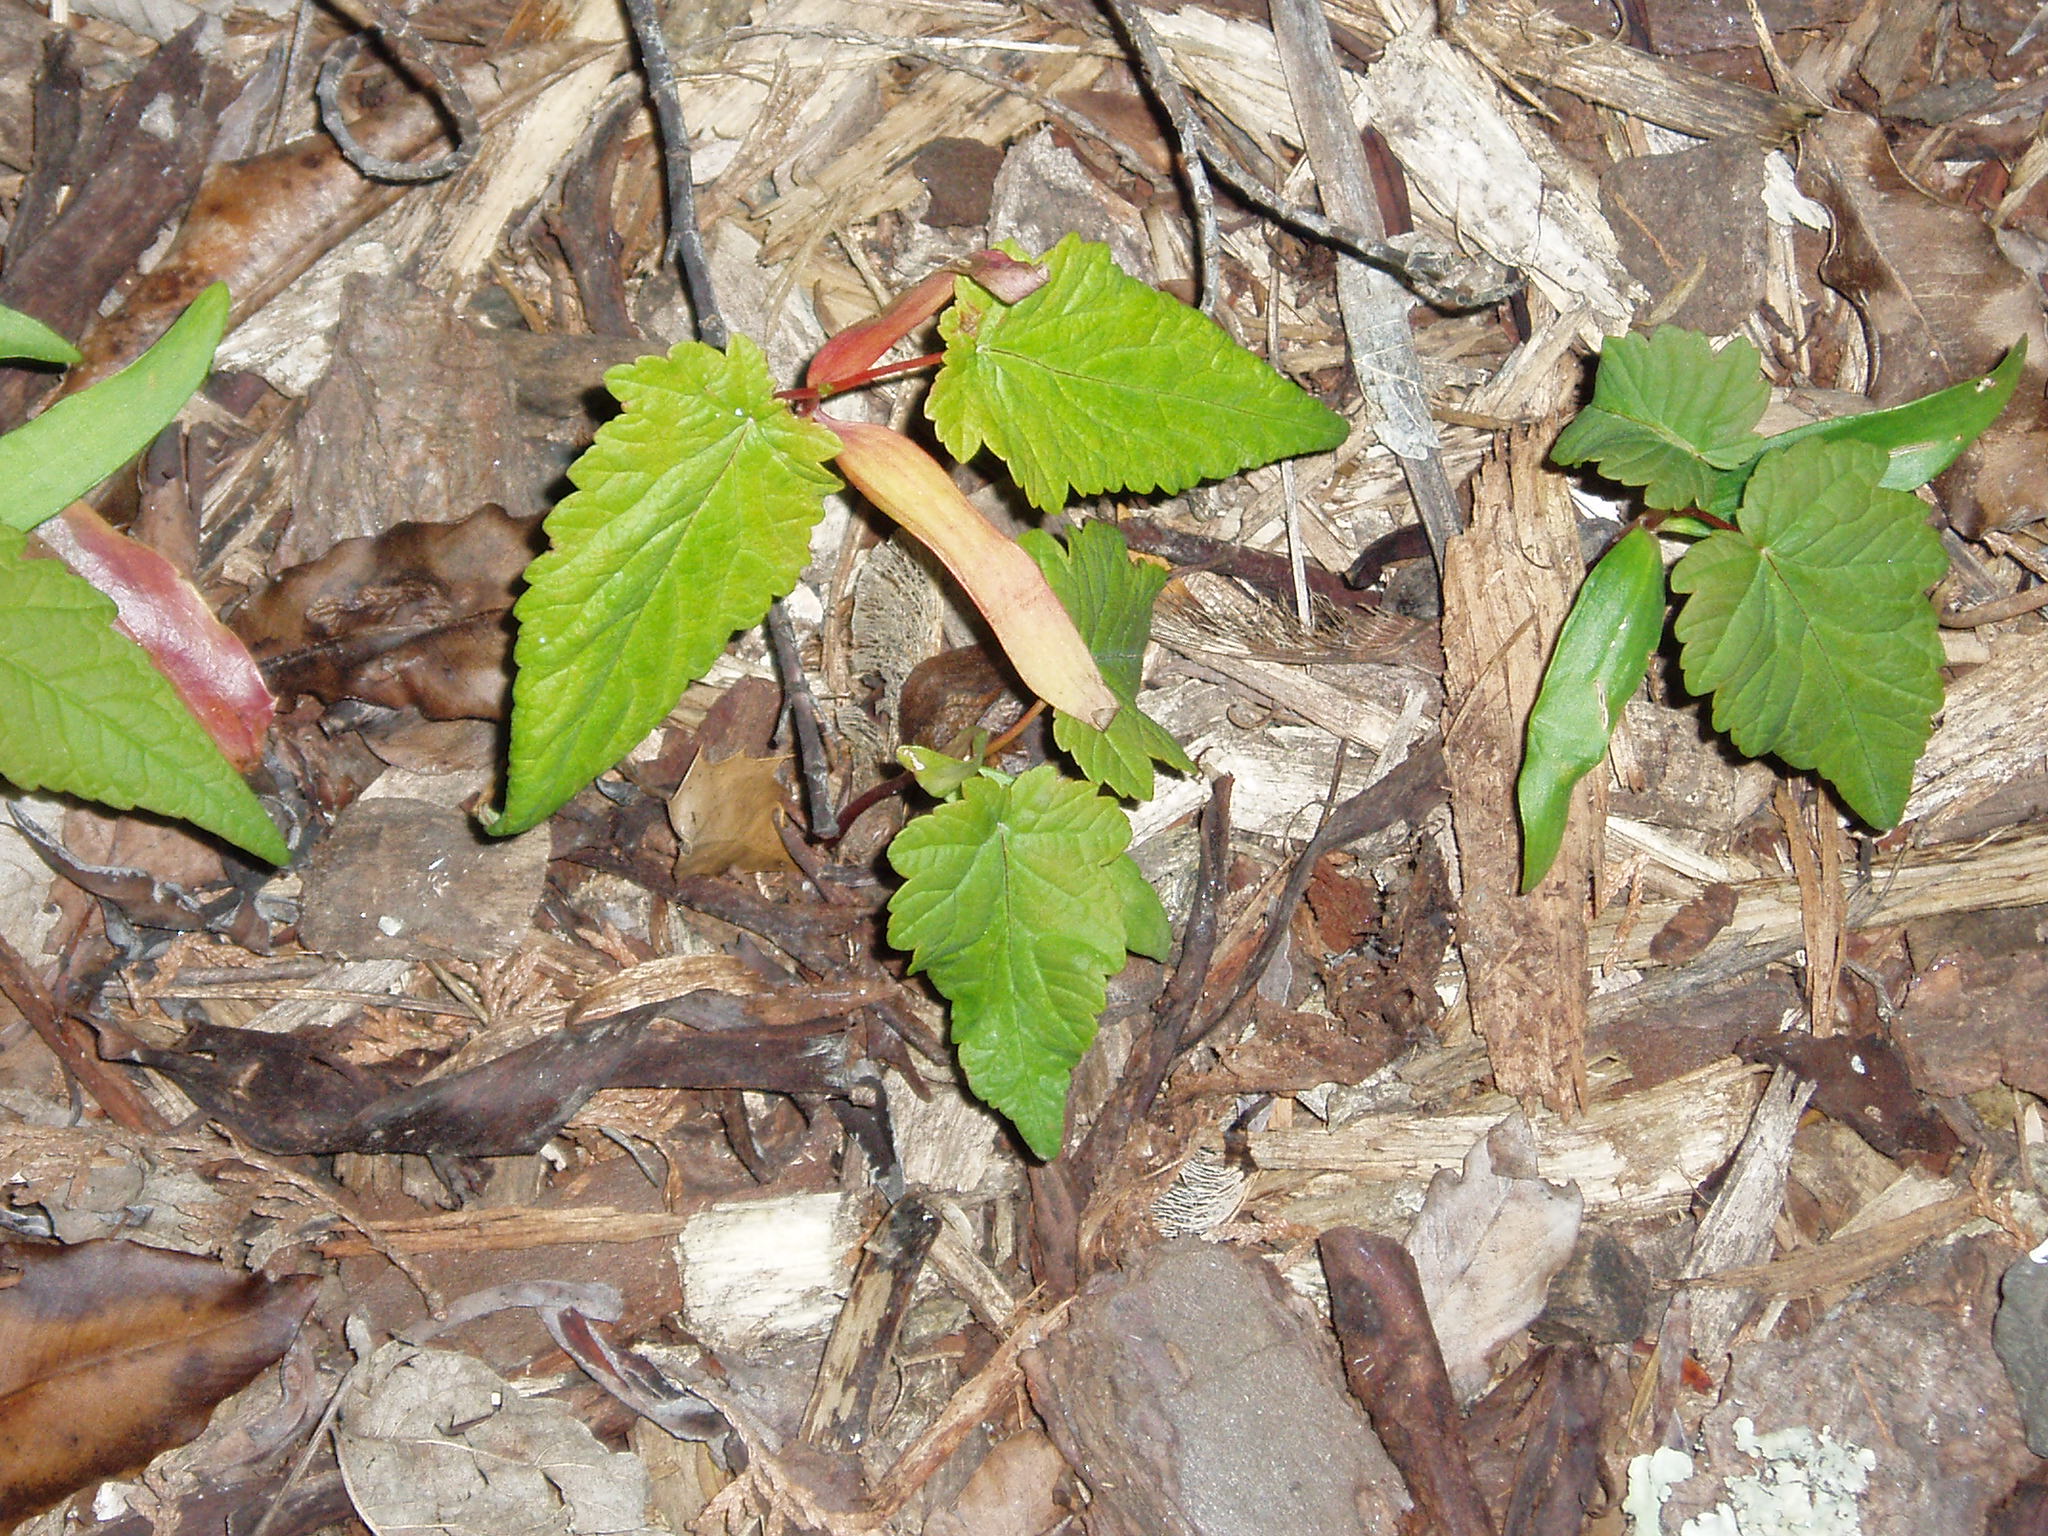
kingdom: Plantae
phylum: Tracheophyta
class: Magnoliopsida
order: Sapindales
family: Sapindaceae
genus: Acer
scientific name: Acer pseudoplatanus
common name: Sycamore
